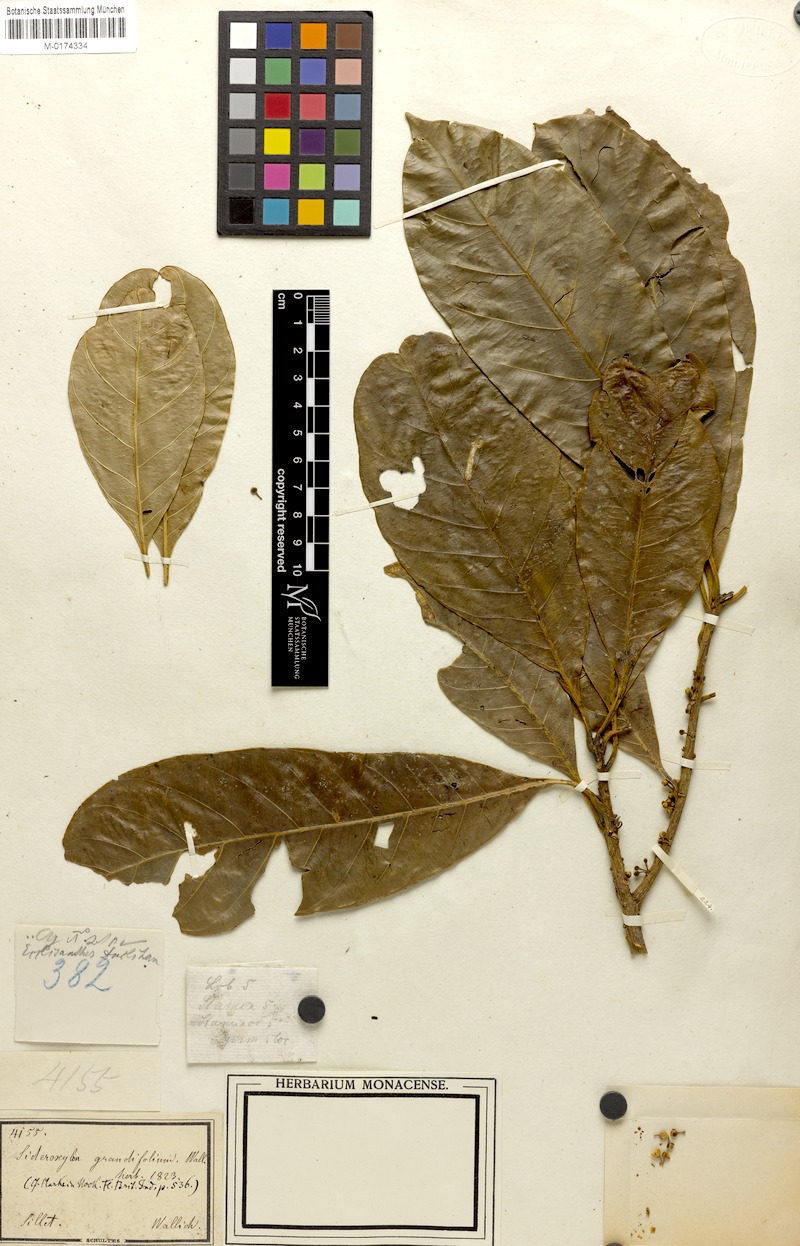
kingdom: Plantae
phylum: Tracheophyta
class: Magnoliopsida
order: Ericales
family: Sapotaceae
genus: Planchonella
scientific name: Planchonella grandifolia
